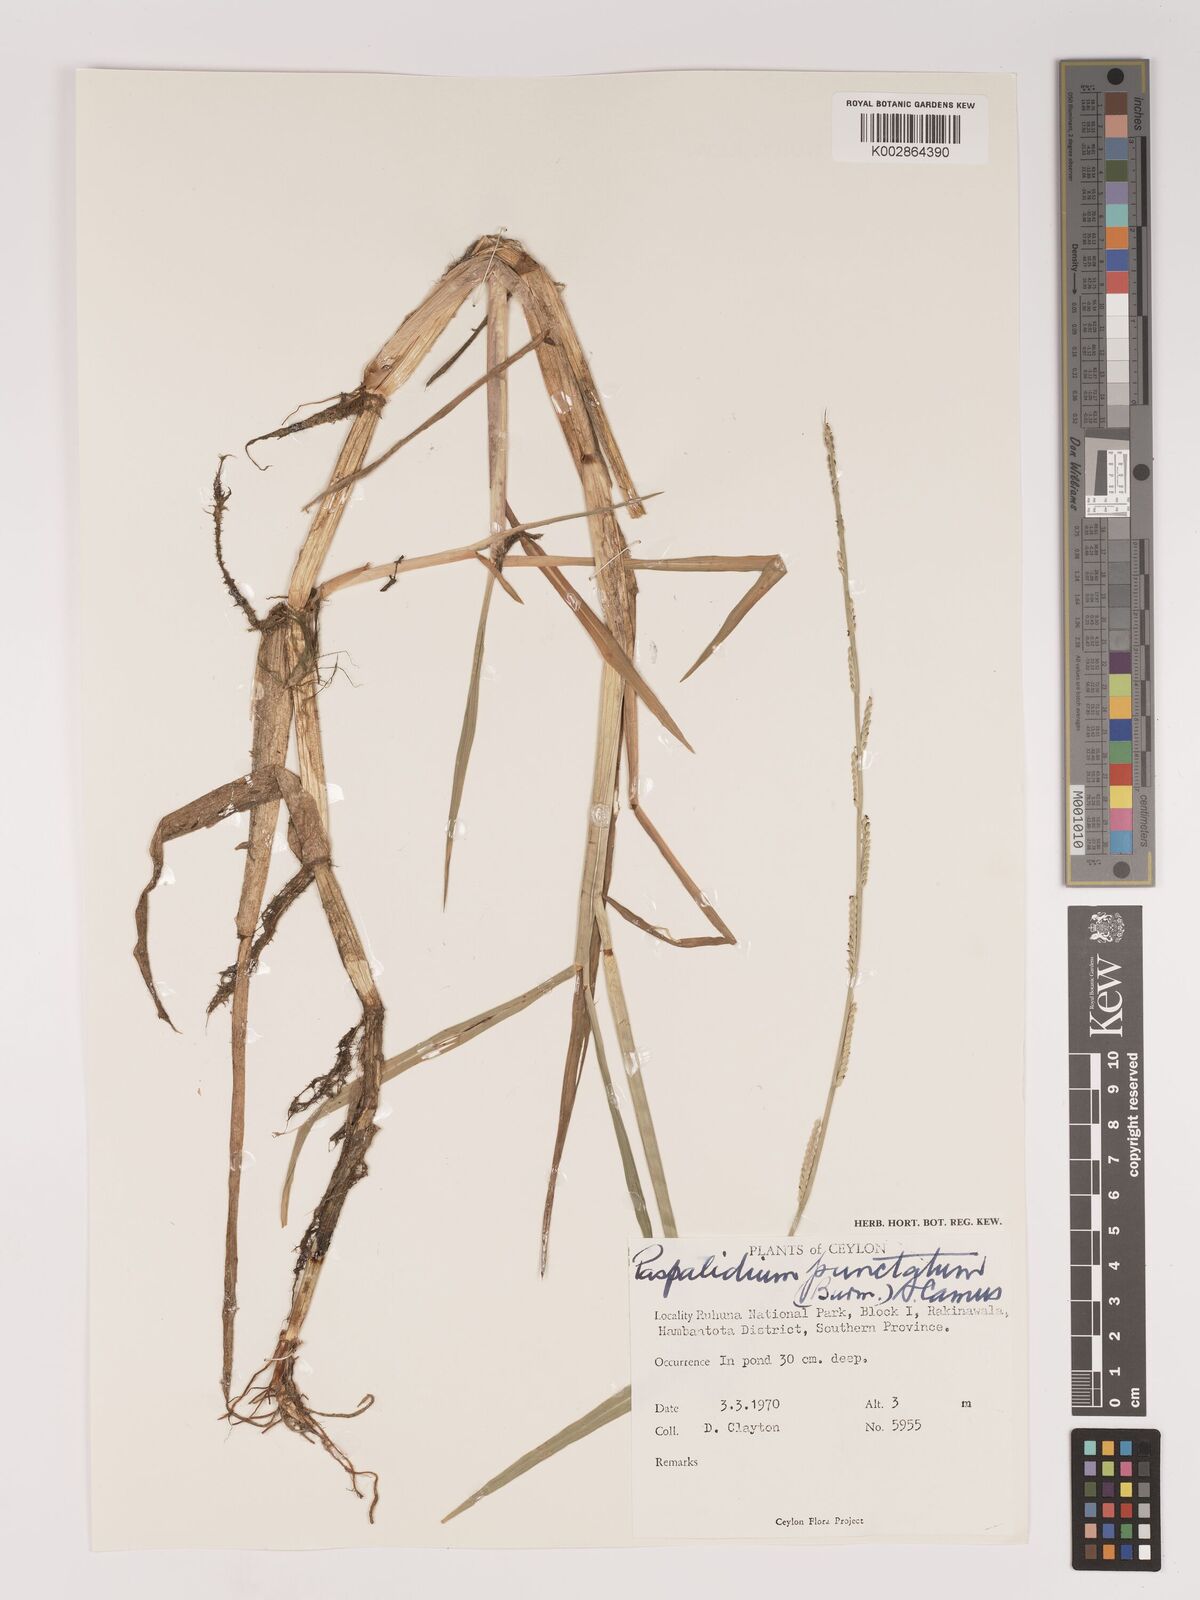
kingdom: Plantae
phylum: Tracheophyta
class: Liliopsida
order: Poales
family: Poaceae
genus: Setaria
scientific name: Setaria punctata
